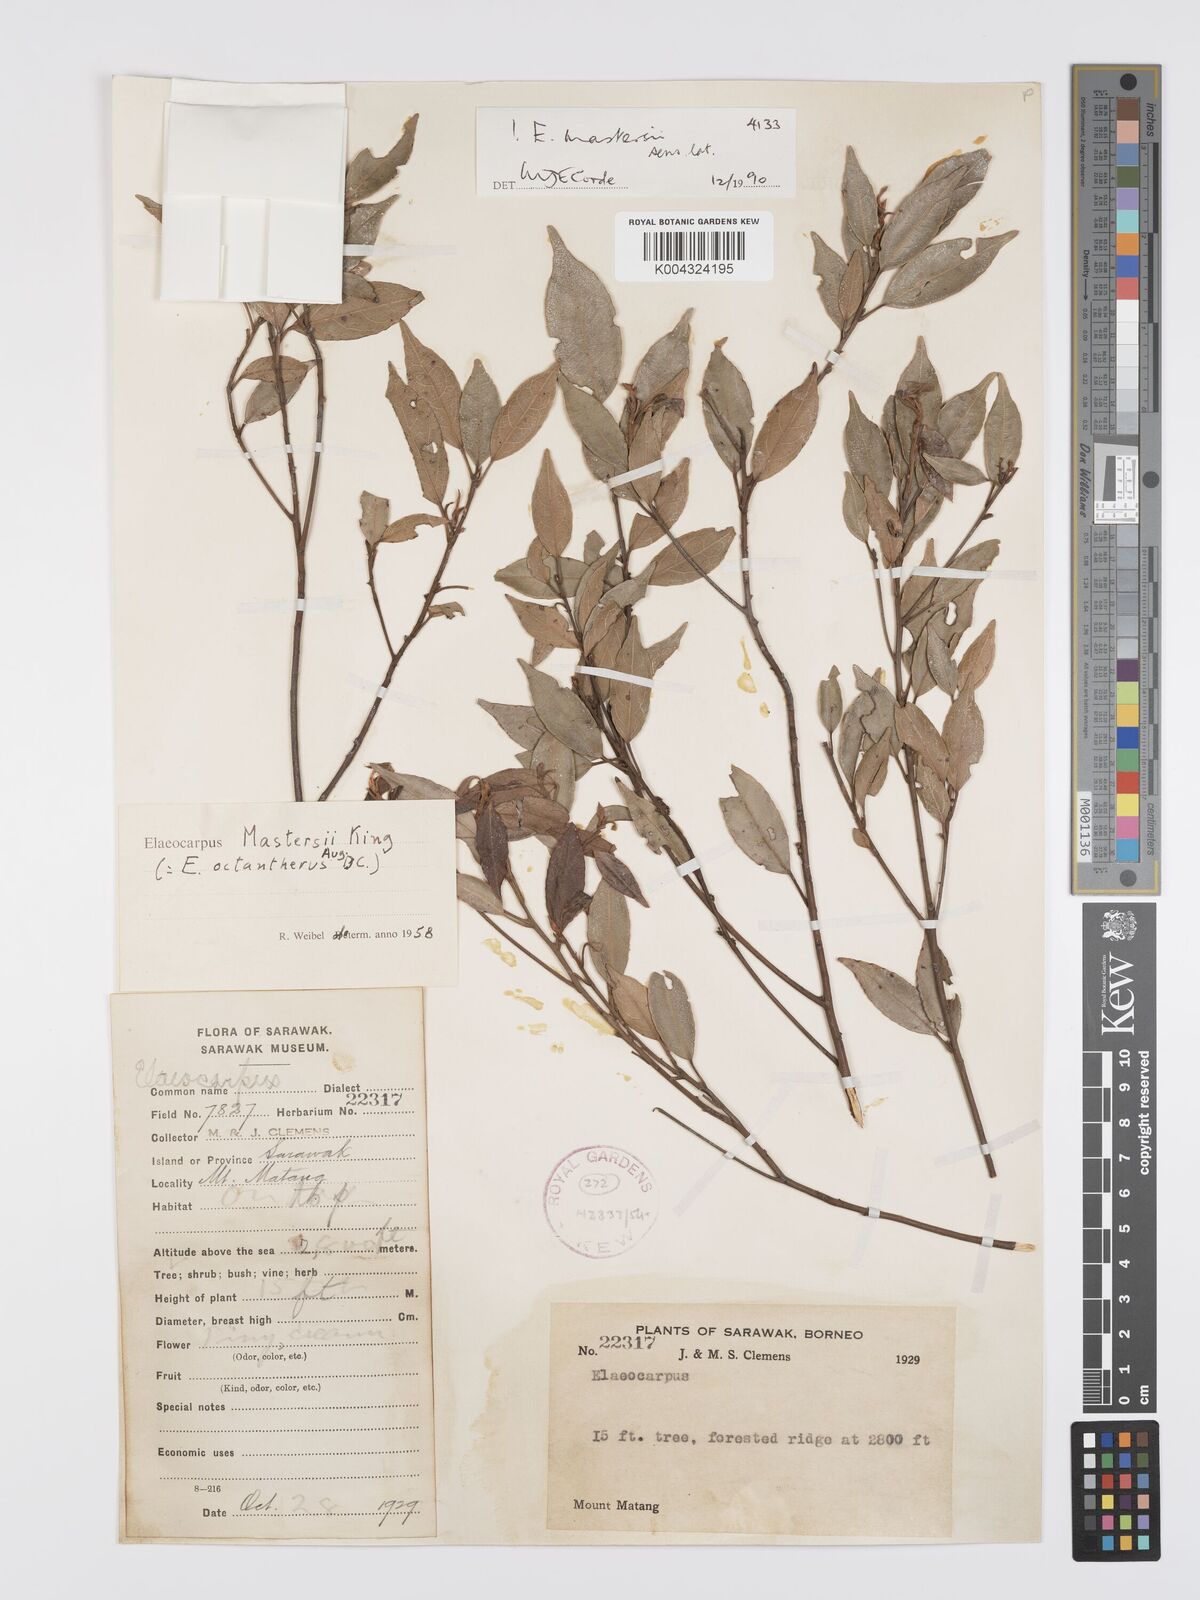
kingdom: Plantae
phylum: Tracheophyta
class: Magnoliopsida
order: Oxalidales
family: Elaeocarpaceae
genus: Elaeocarpus
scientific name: Elaeocarpus mastersii
